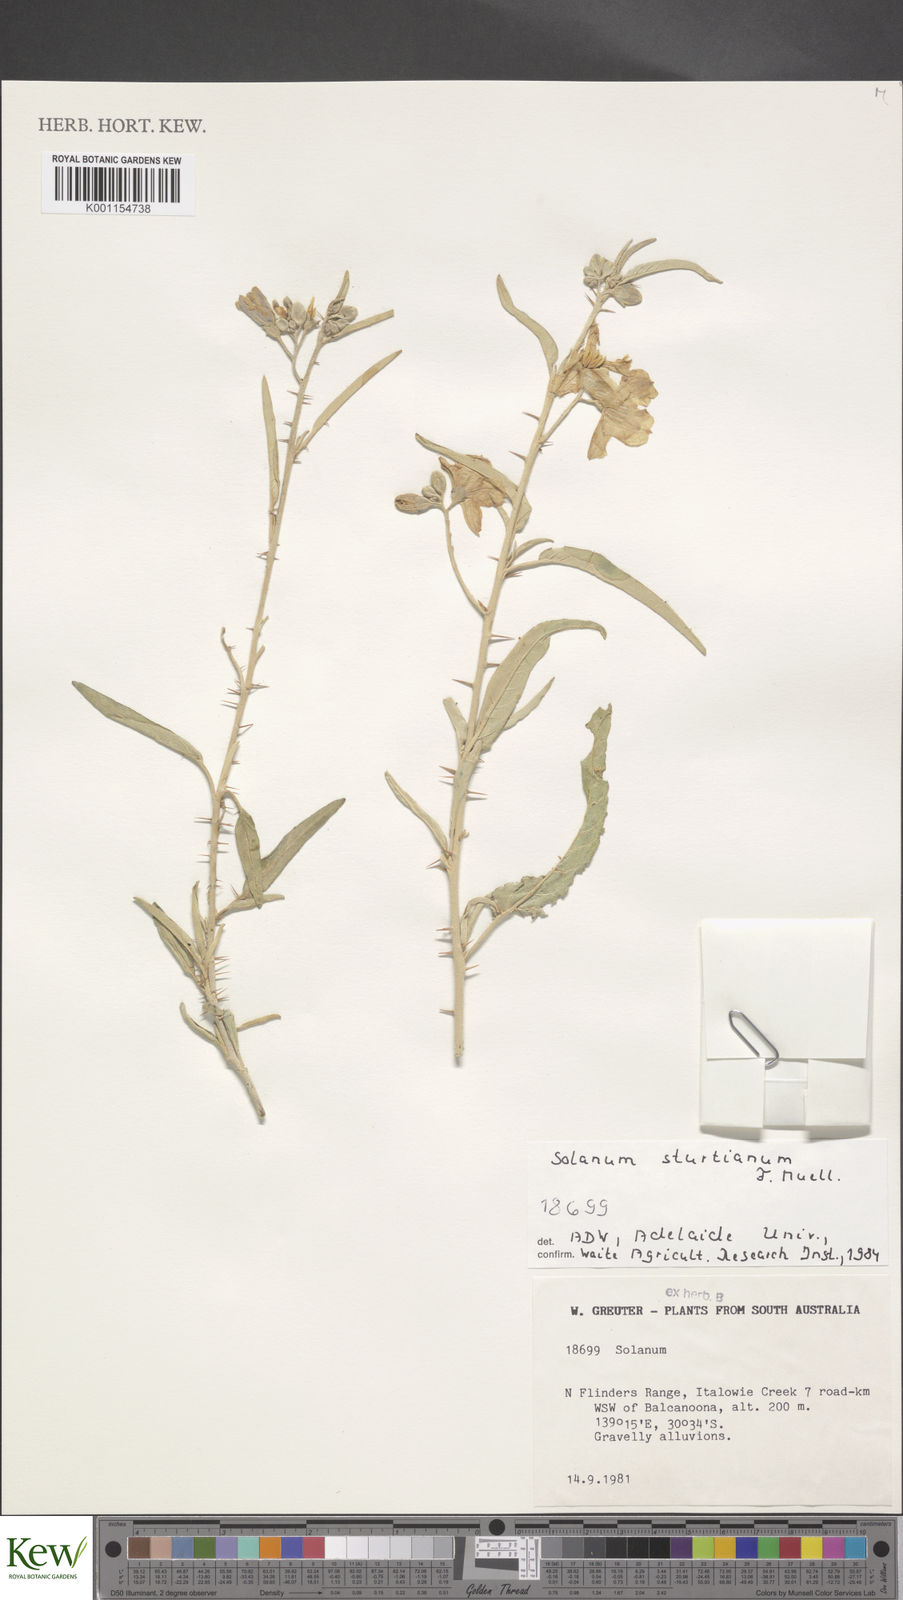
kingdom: Plantae
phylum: Tracheophyta
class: Magnoliopsida
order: Solanales
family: Solanaceae
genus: Solanum
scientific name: Solanum sturtianum
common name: Thargomindah nightshade
